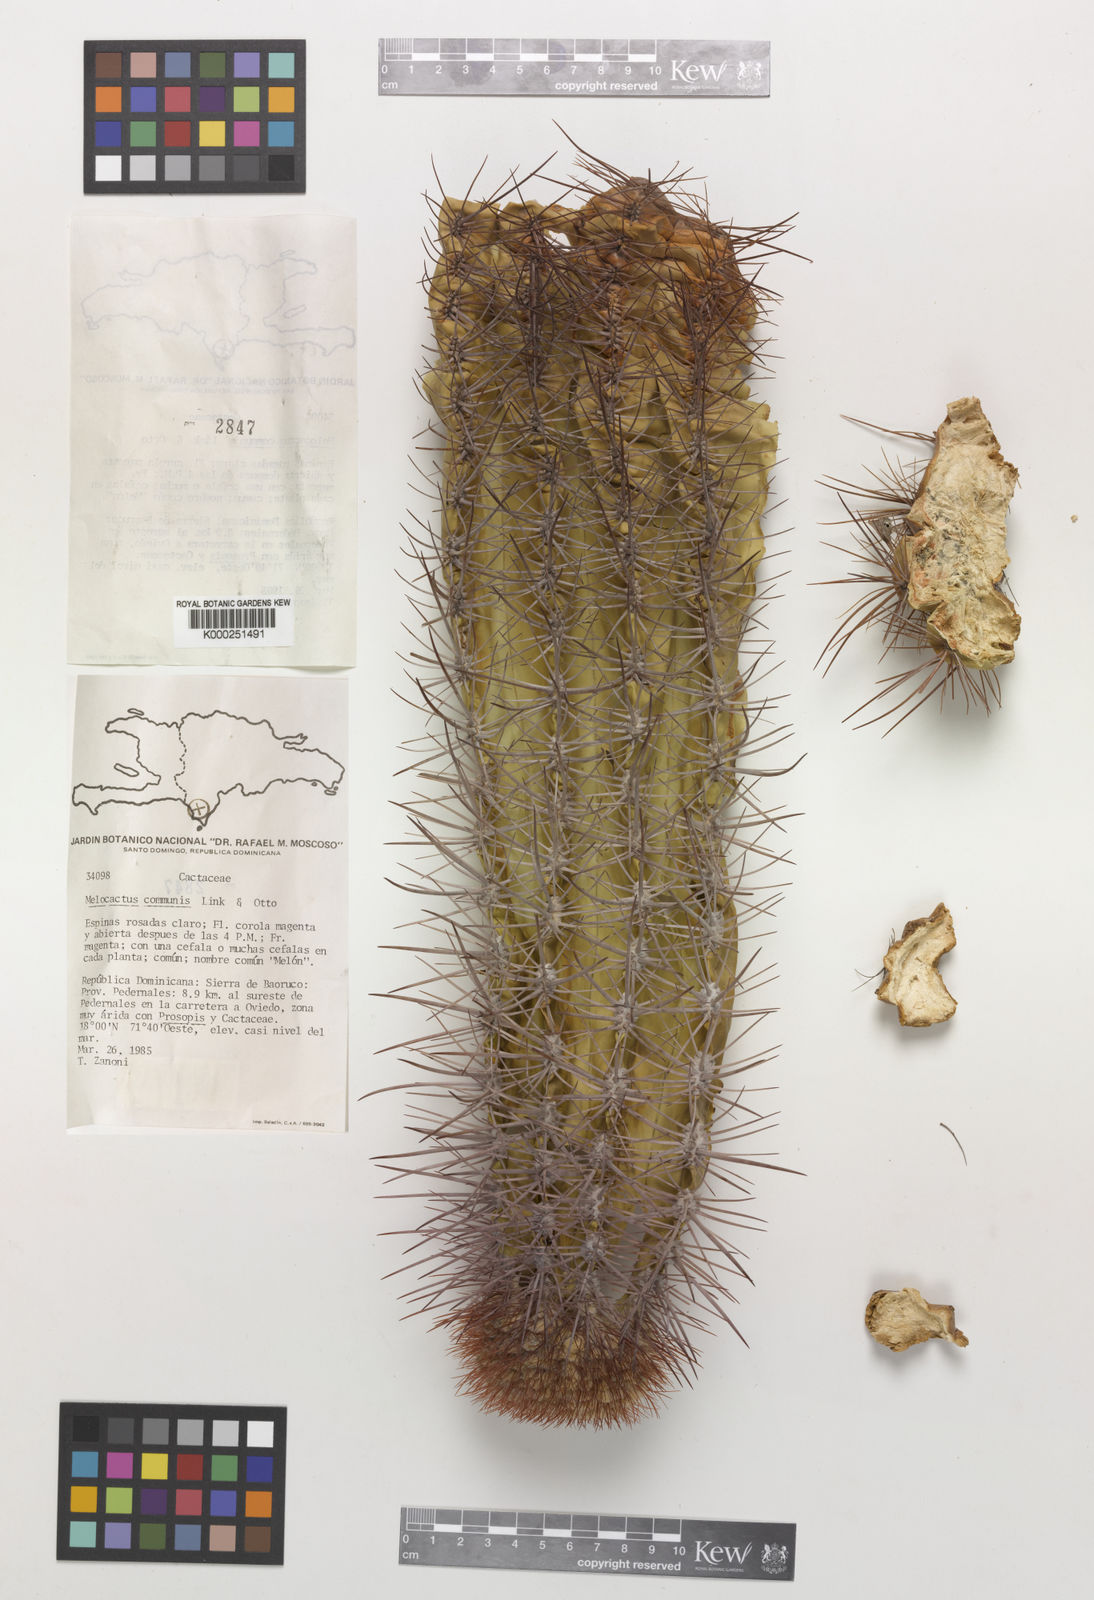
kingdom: Plantae
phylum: Tracheophyta
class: Magnoliopsida
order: Caryophyllales
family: Cactaceae
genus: Melocactus
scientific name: Melocactus
